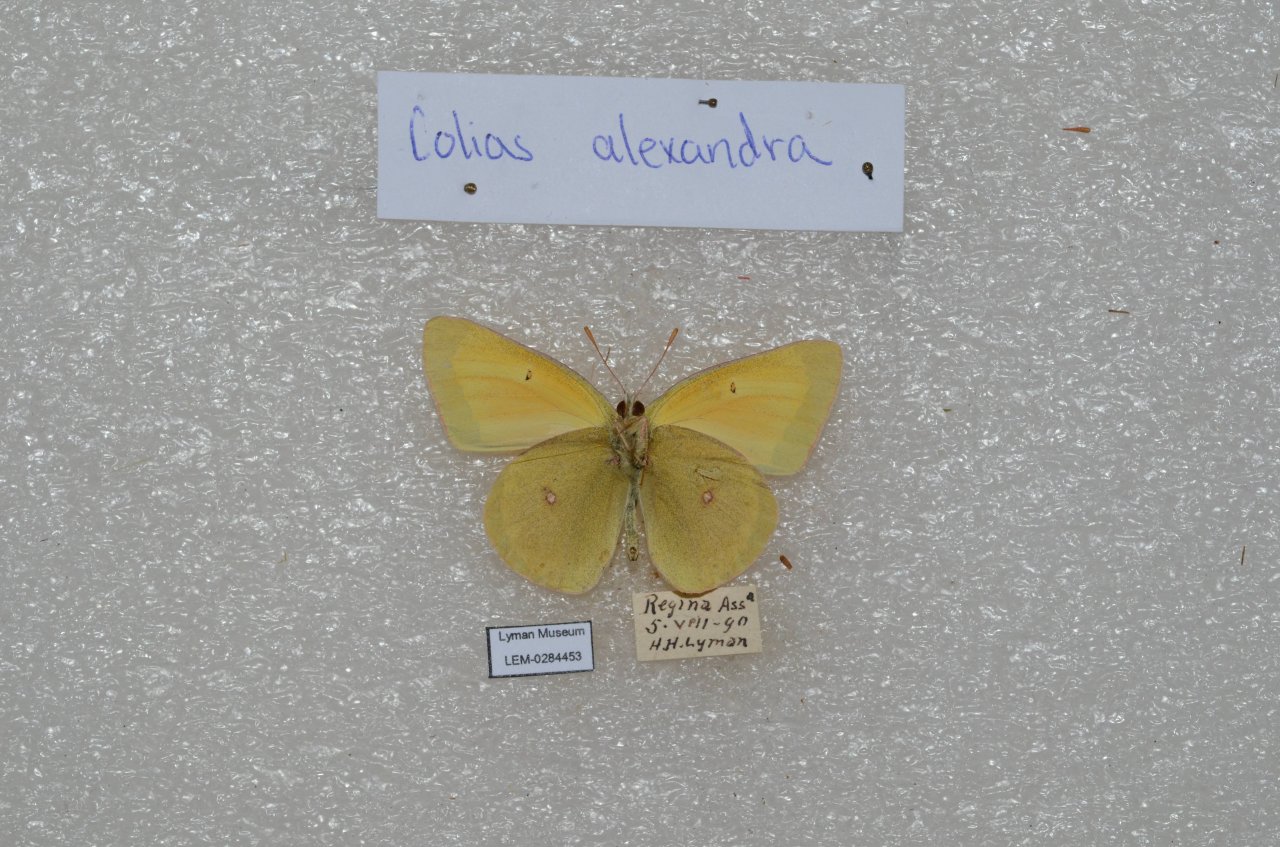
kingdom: Animalia
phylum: Arthropoda
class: Insecta
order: Lepidoptera
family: Pieridae
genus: Colias
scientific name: Colias christina
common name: Christina Sulphur
